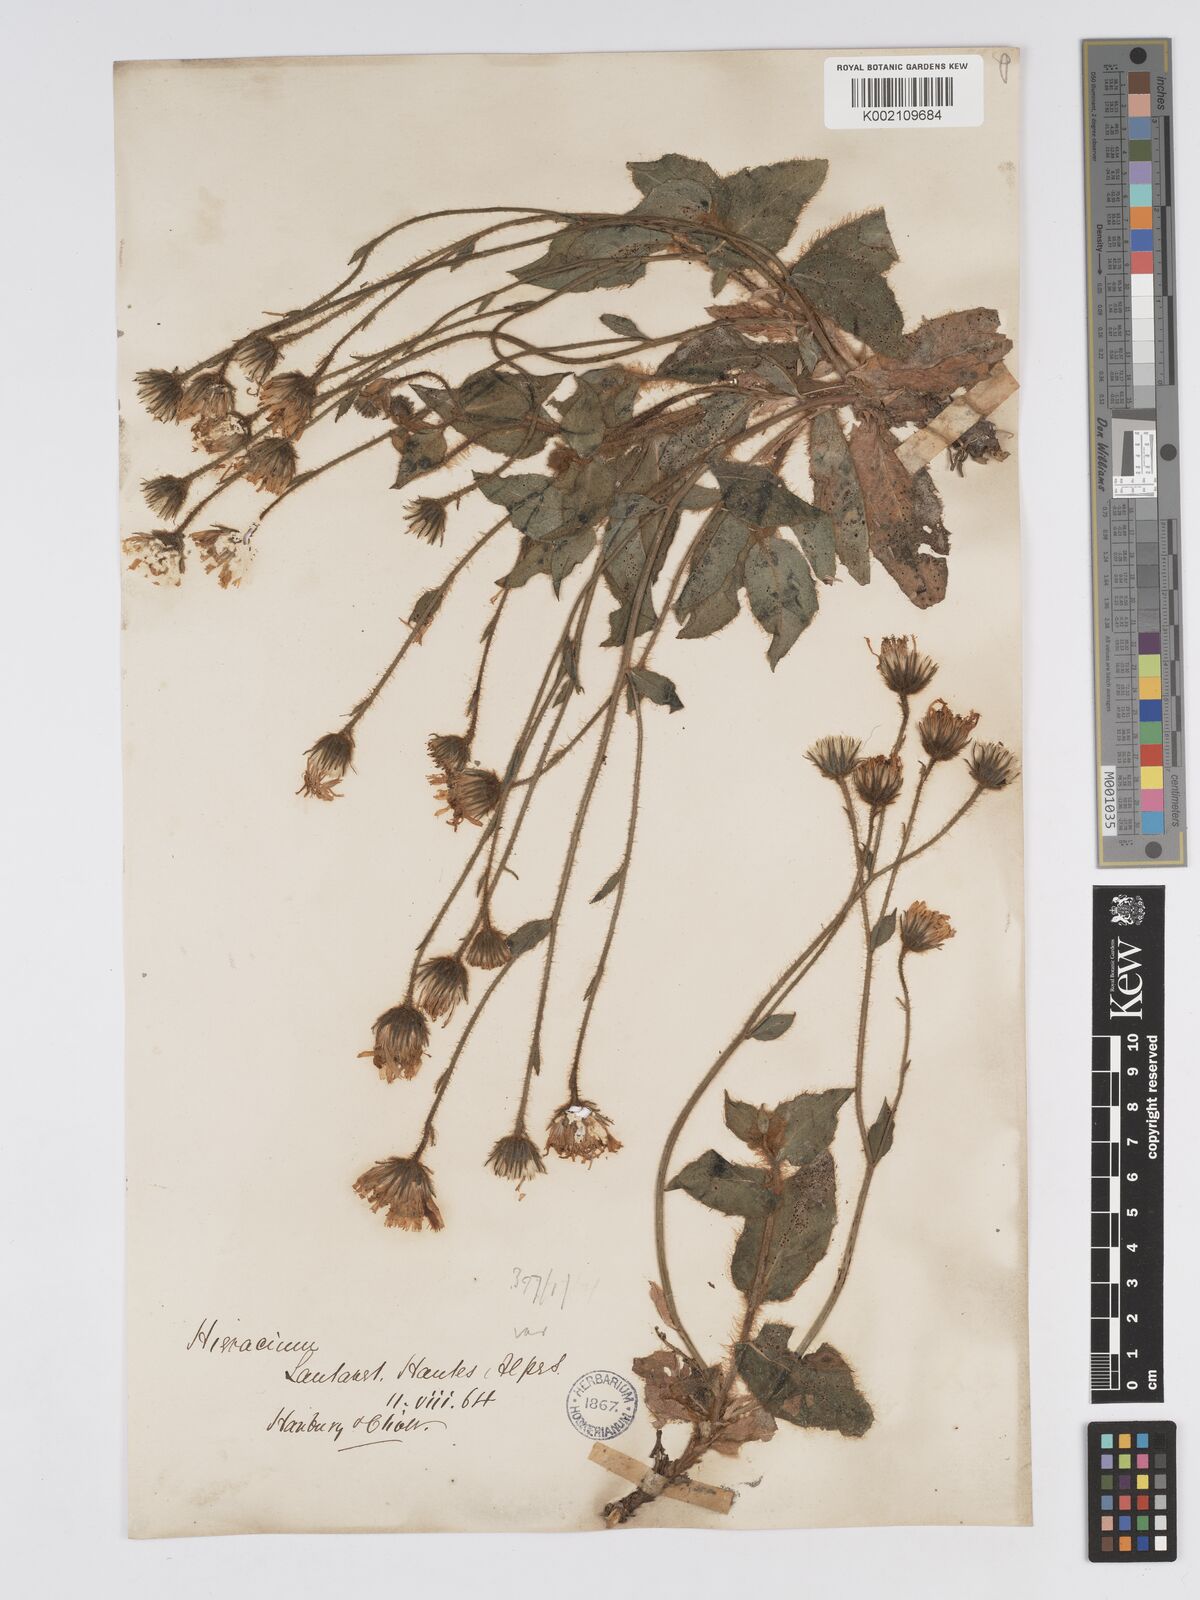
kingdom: Plantae
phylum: Tracheophyta
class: Magnoliopsida
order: Asterales
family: Asteraceae
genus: Hieracium
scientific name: Hieracium nobile
